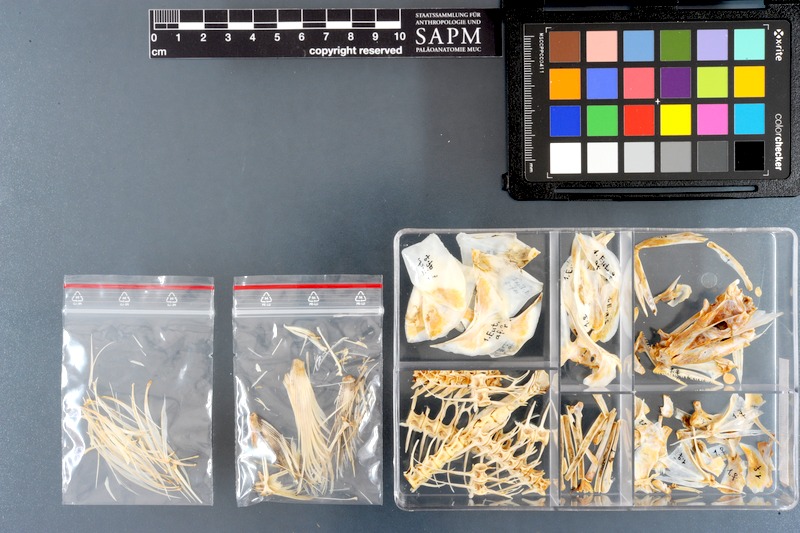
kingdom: Animalia
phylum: Chordata
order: Perciformes
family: Scombridae
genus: Euthynnus
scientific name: Euthynnus affinis
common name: Mackerel tuna
